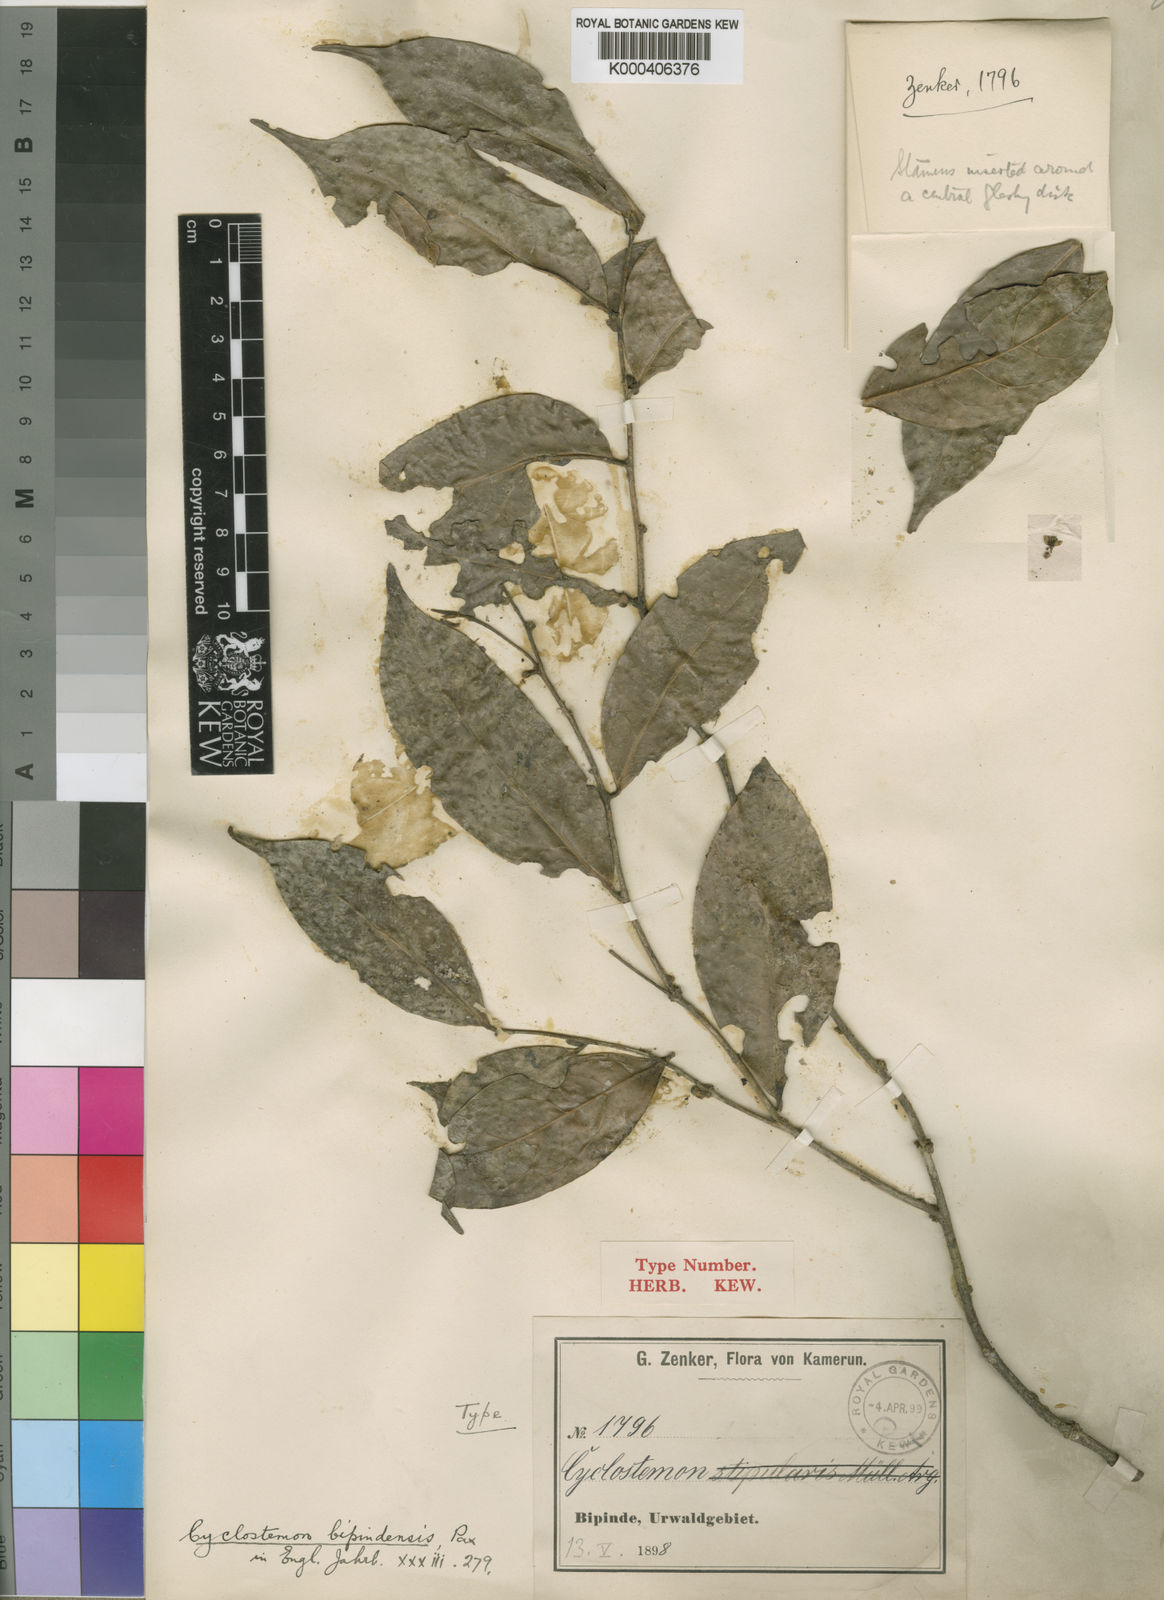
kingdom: Plantae
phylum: Tracheophyta
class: Magnoliopsida
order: Malpighiales
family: Putranjivaceae
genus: Drypetes
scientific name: Drypetes bipindensis
